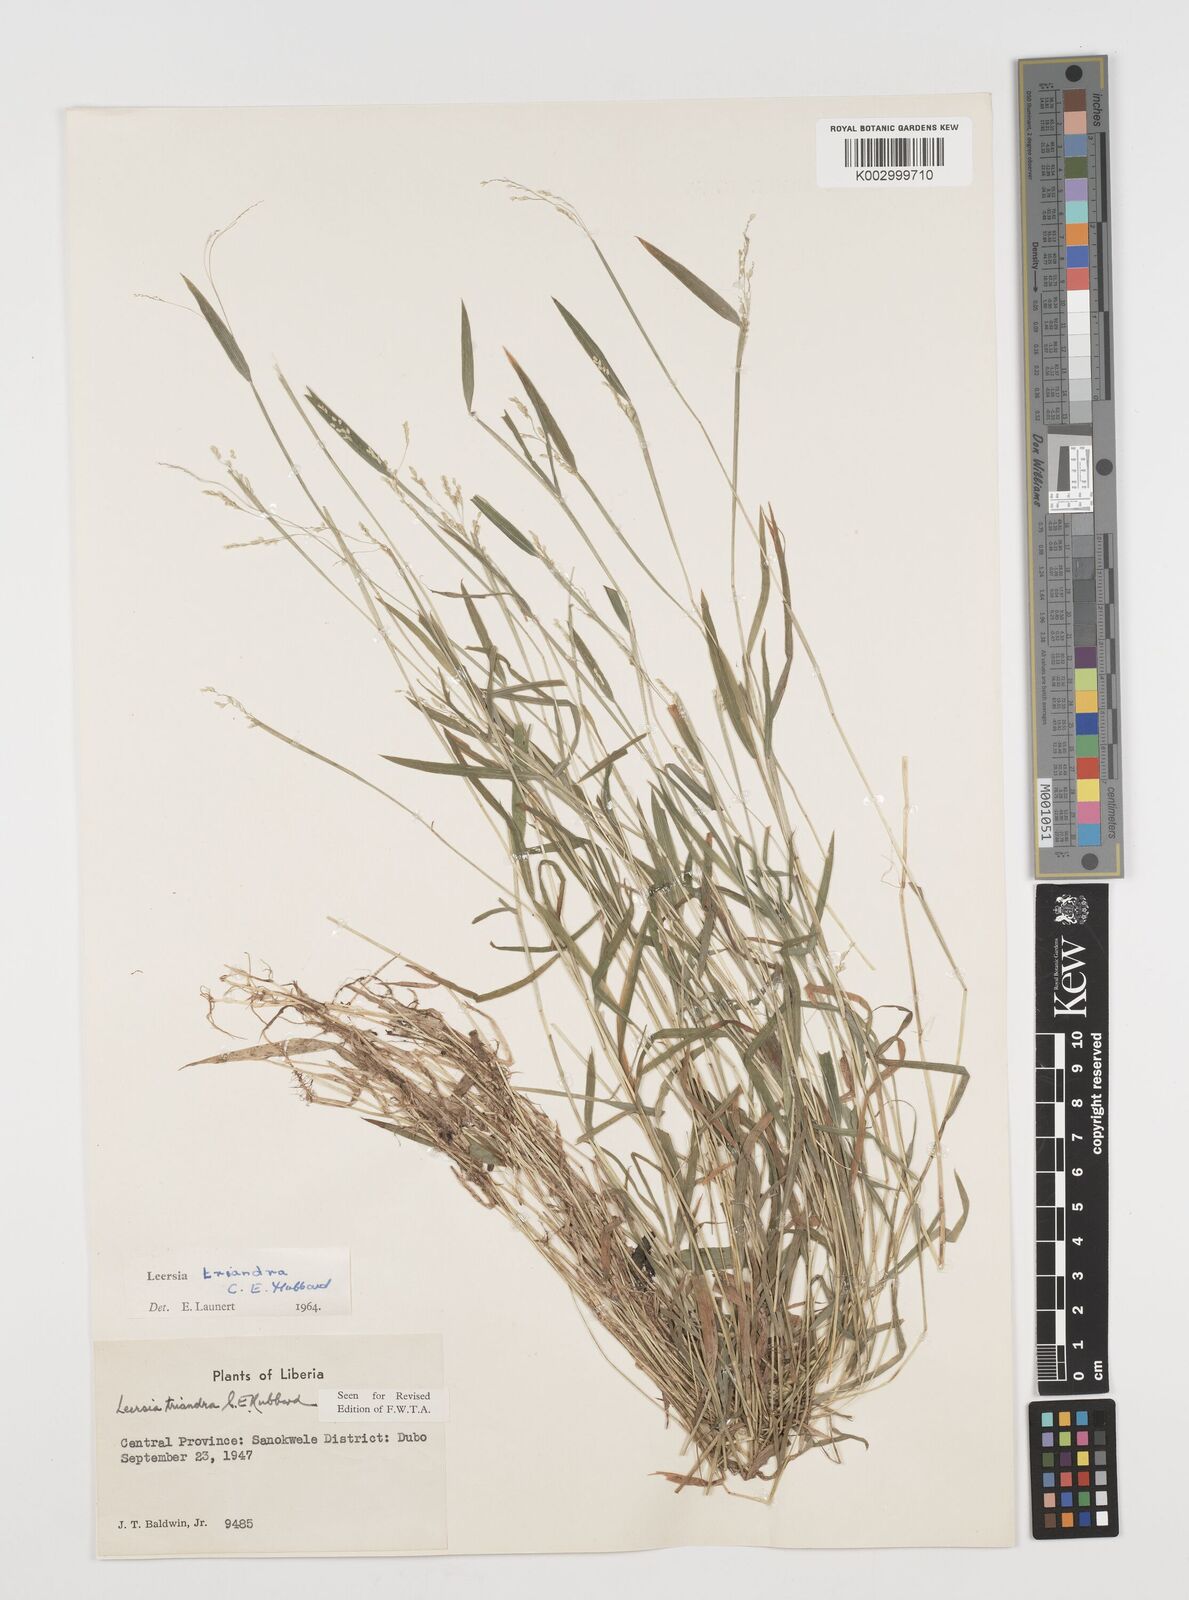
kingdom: Plantae
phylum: Tracheophyta
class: Liliopsida
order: Poales
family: Poaceae
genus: Leersia
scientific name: Leersia triandra
